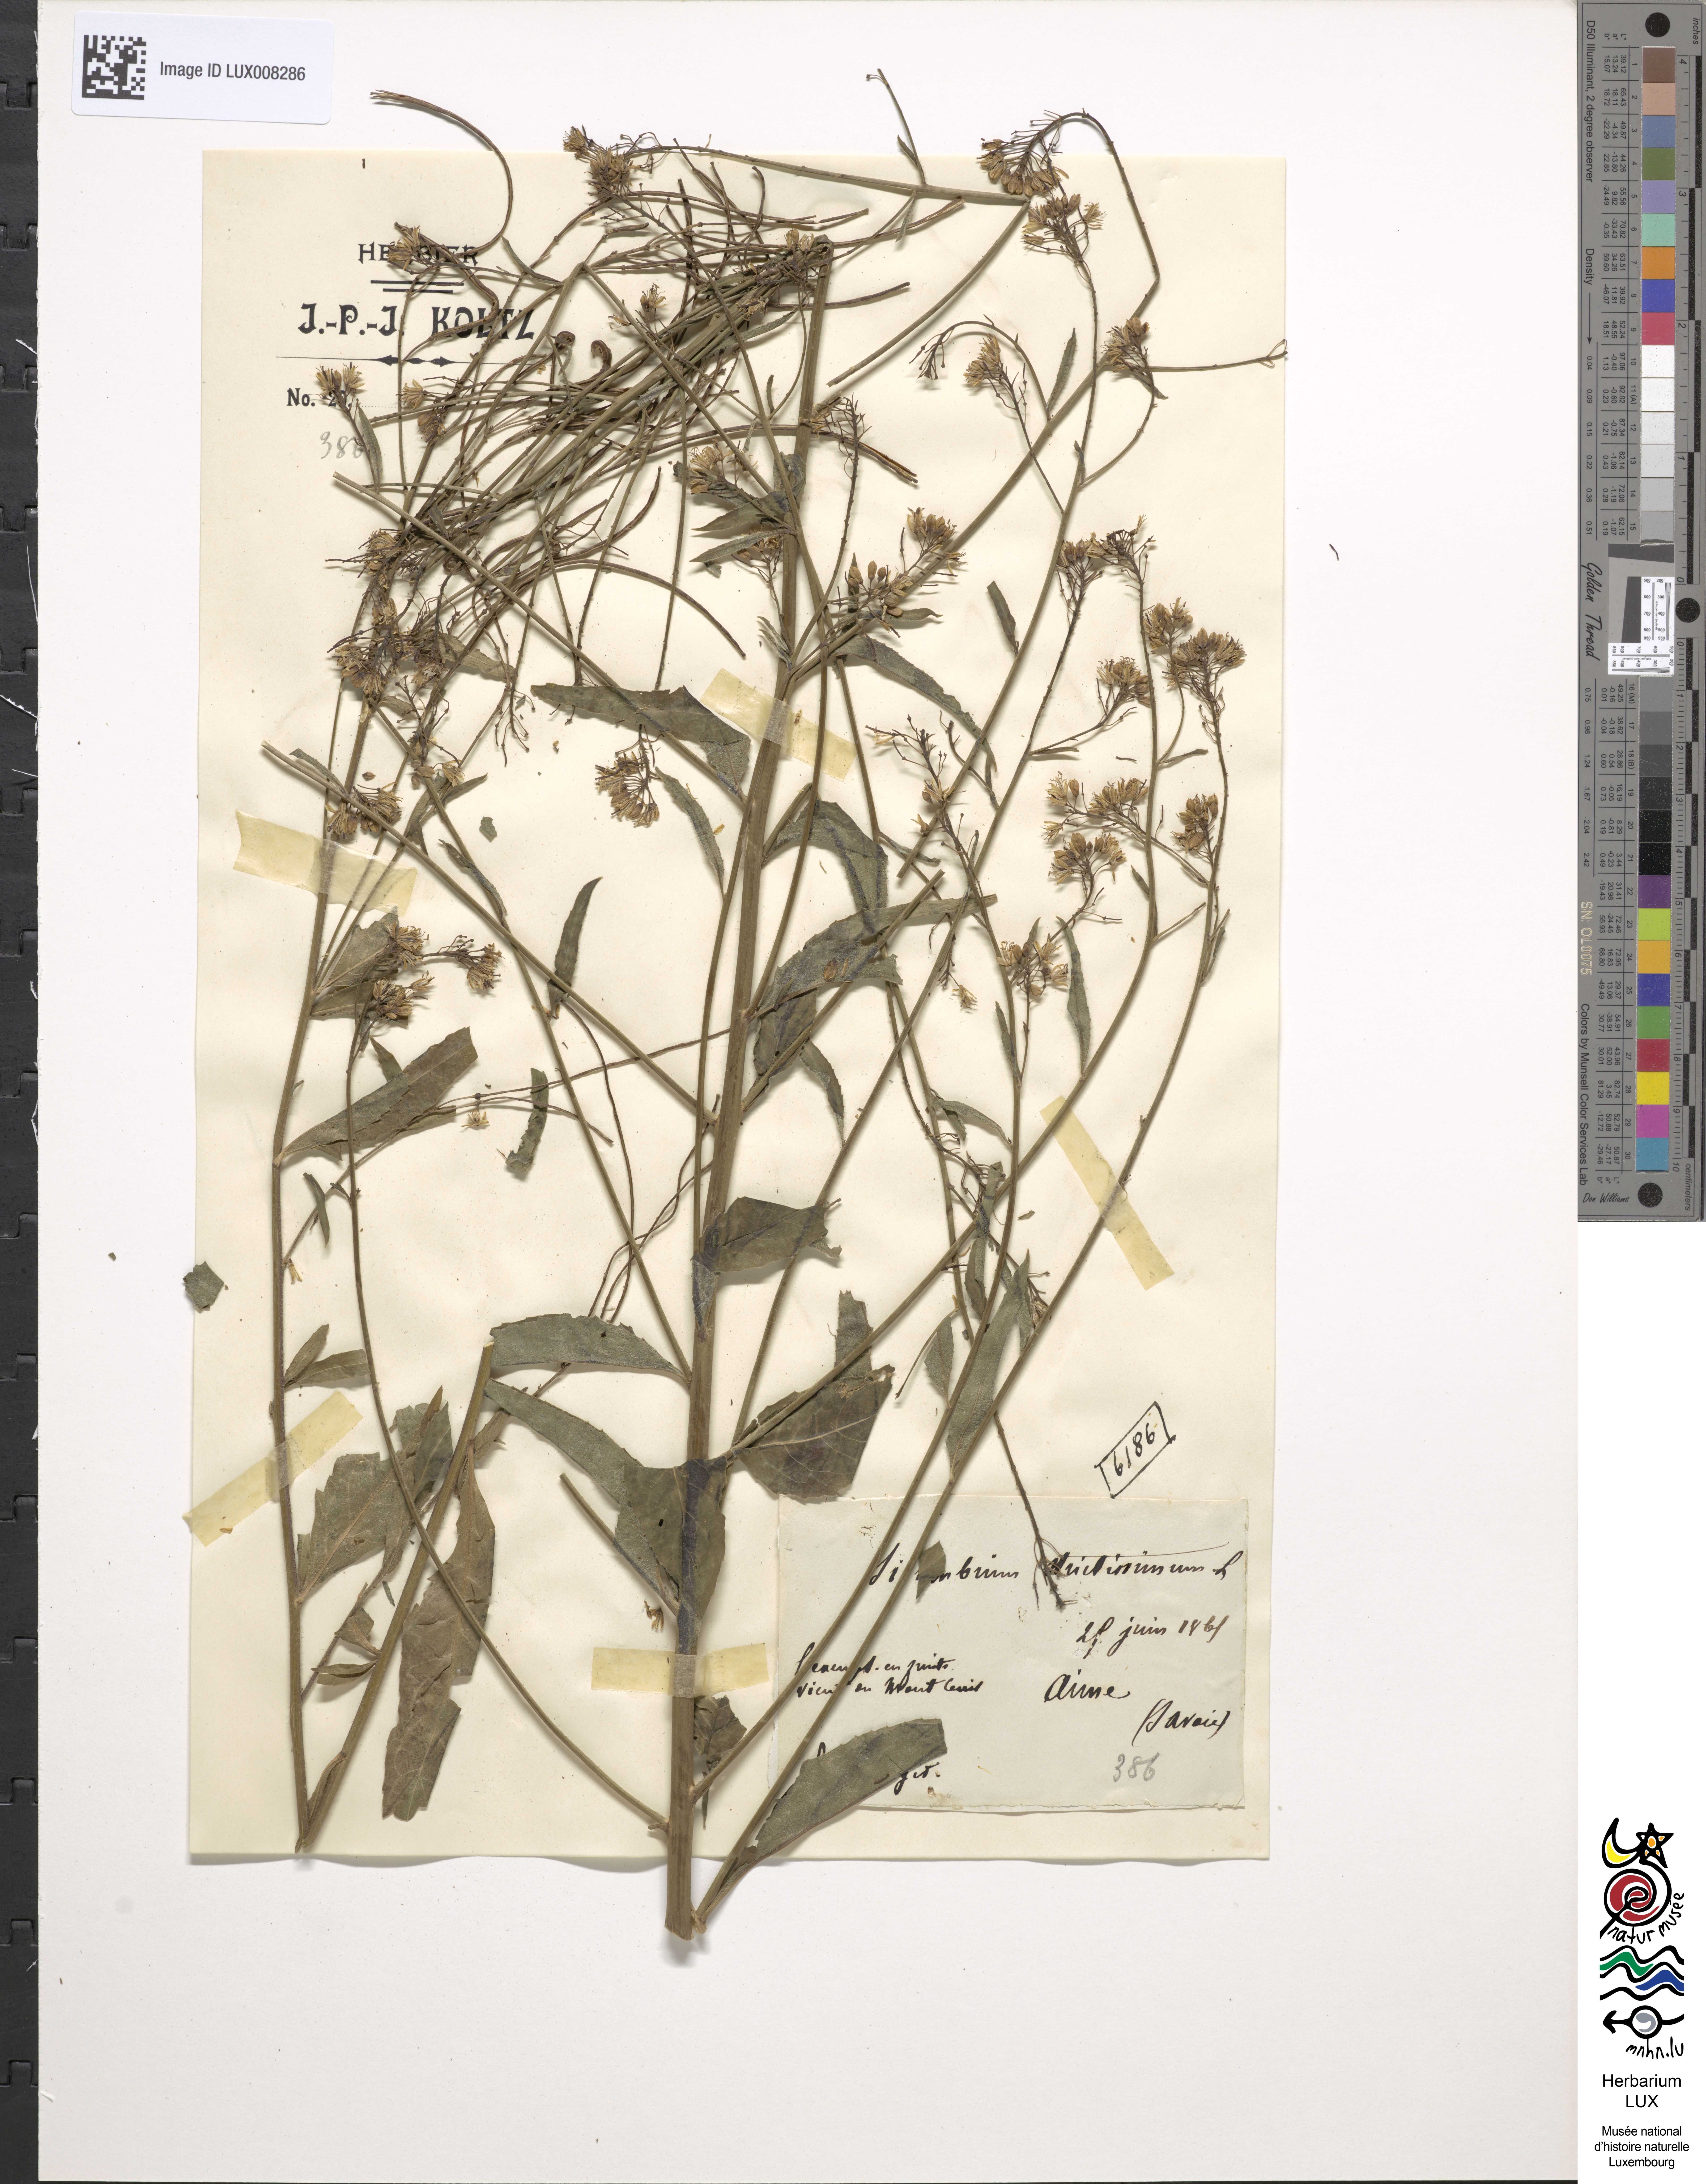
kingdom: Plantae
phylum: Tracheophyta
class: Magnoliopsida
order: Brassicales
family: Brassicaceae
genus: Sisymbrium
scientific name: Sisymbrium strictissimum
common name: Perennial rocket
